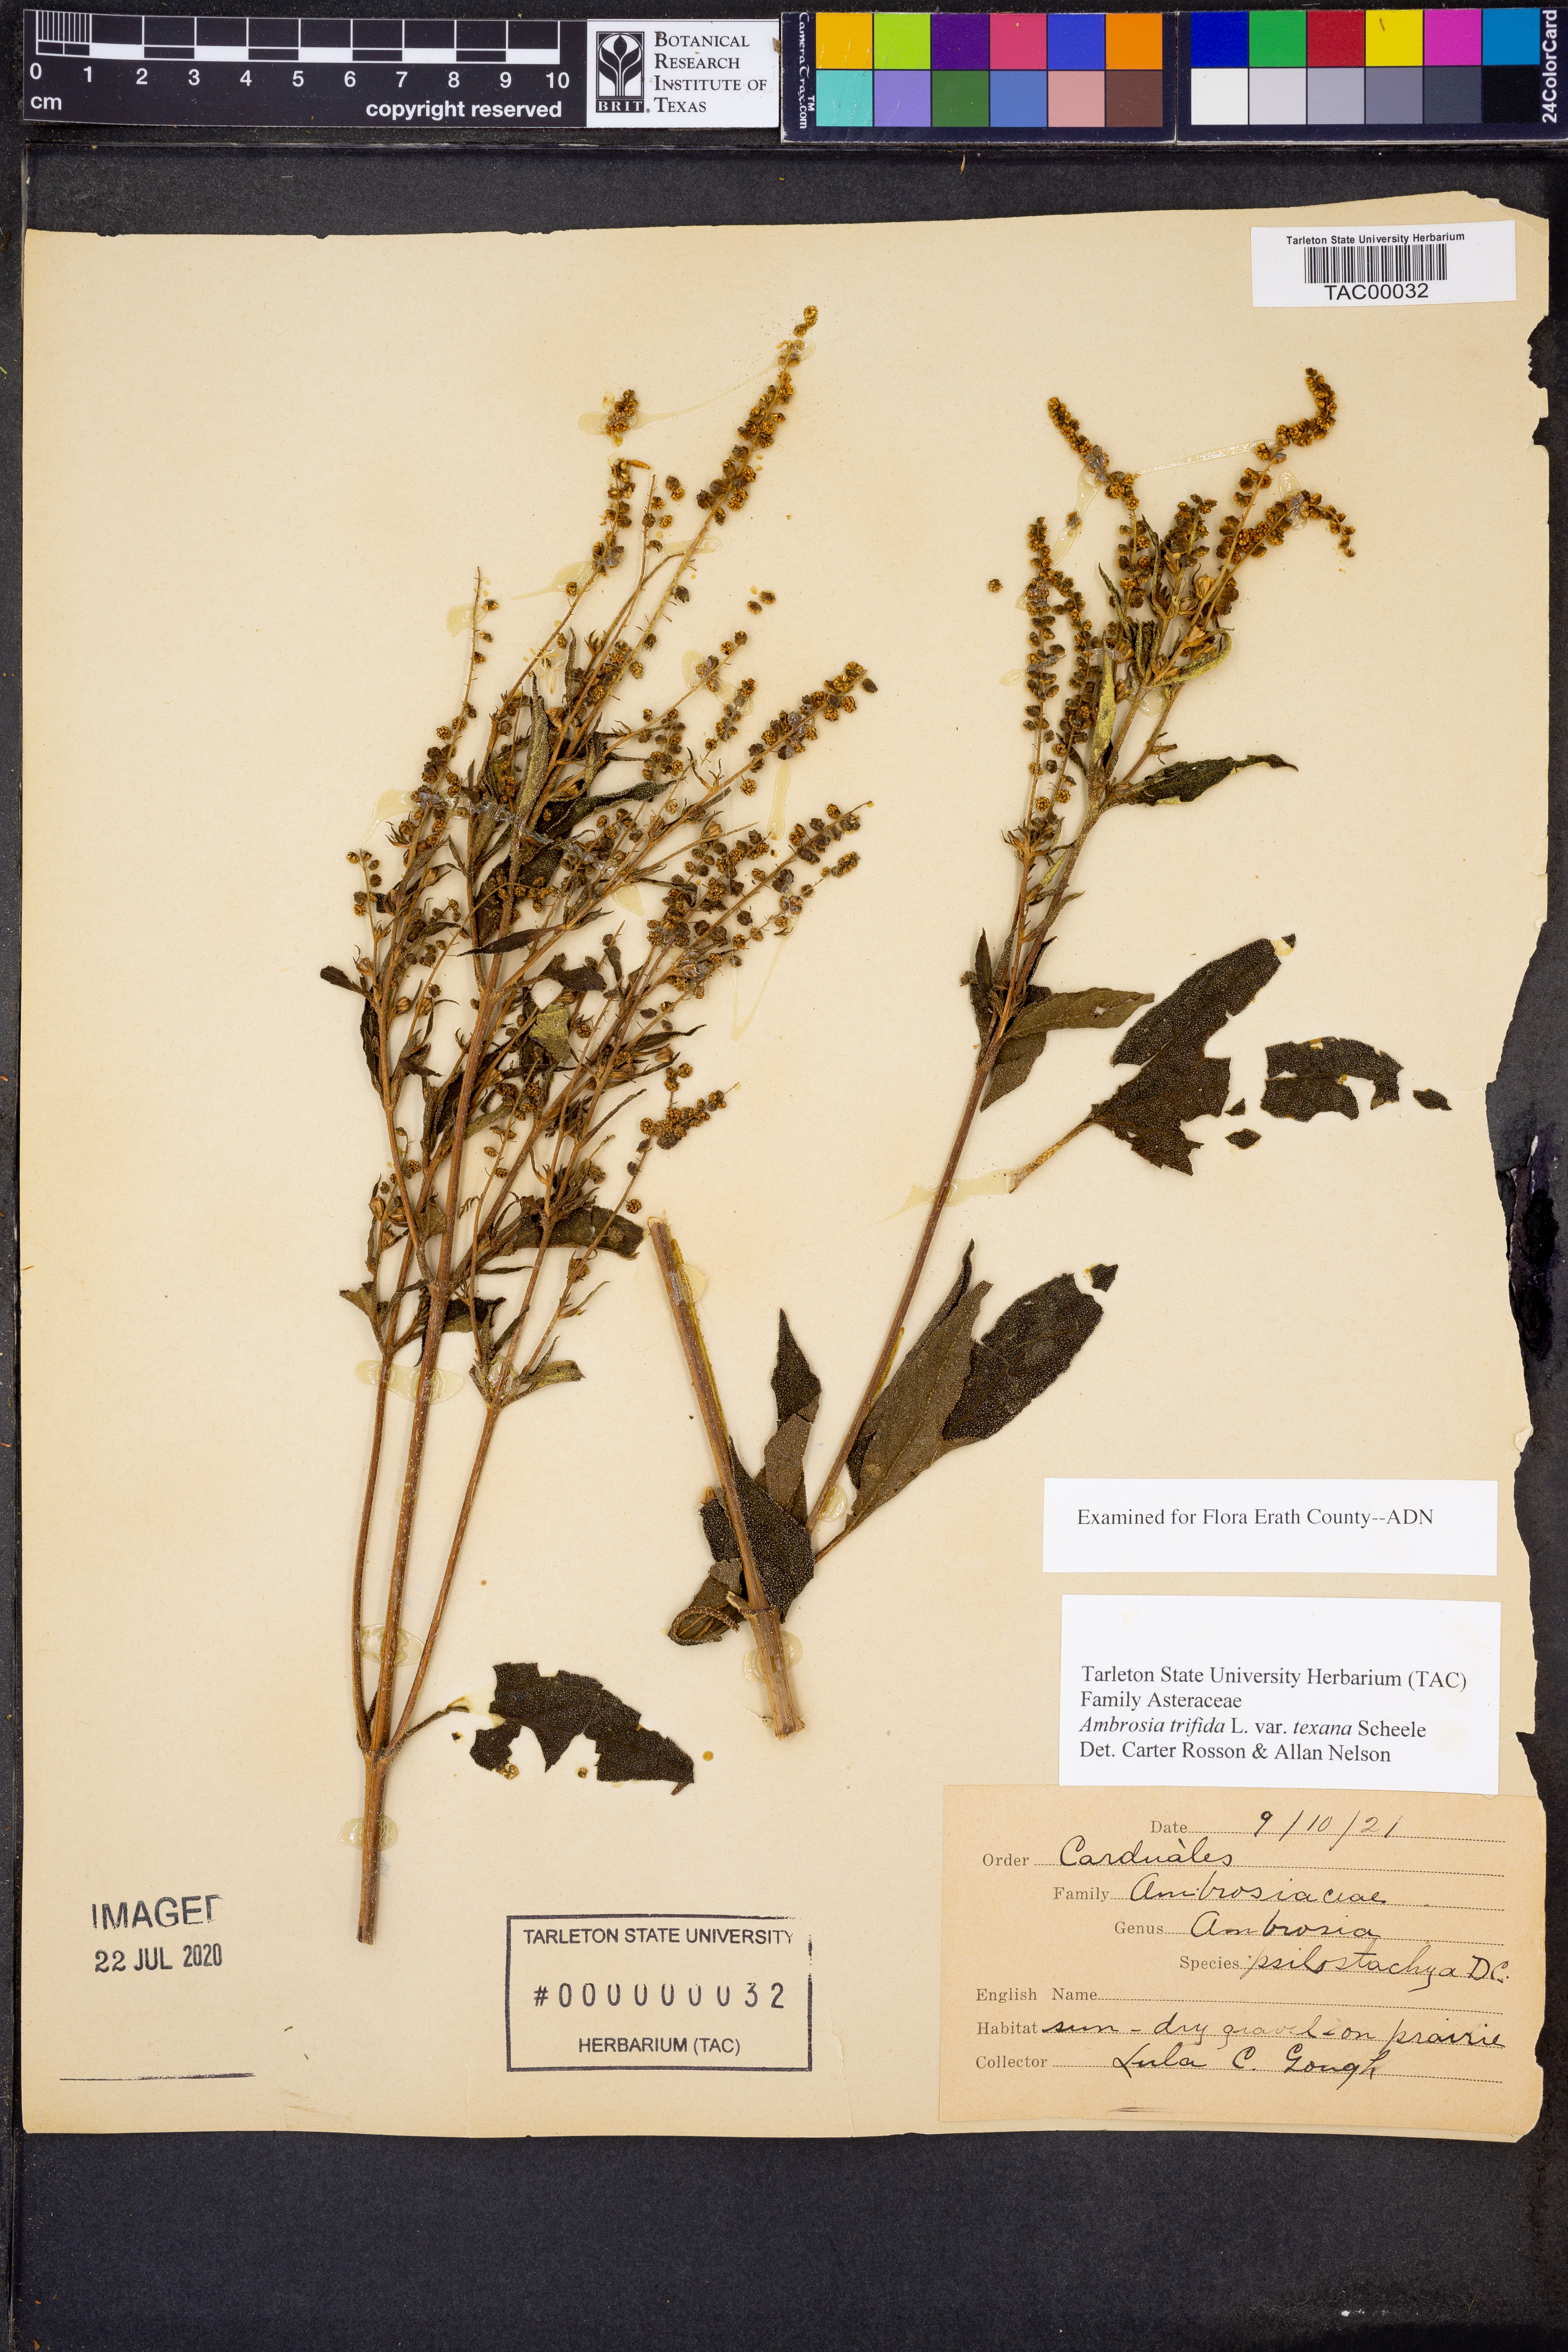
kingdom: Plantae
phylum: Tracheophyta
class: Magnoliopsida
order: Asterales
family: Asteraceae
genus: Ambrosia
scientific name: Ambrosia trifida
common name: Giant ragweed
